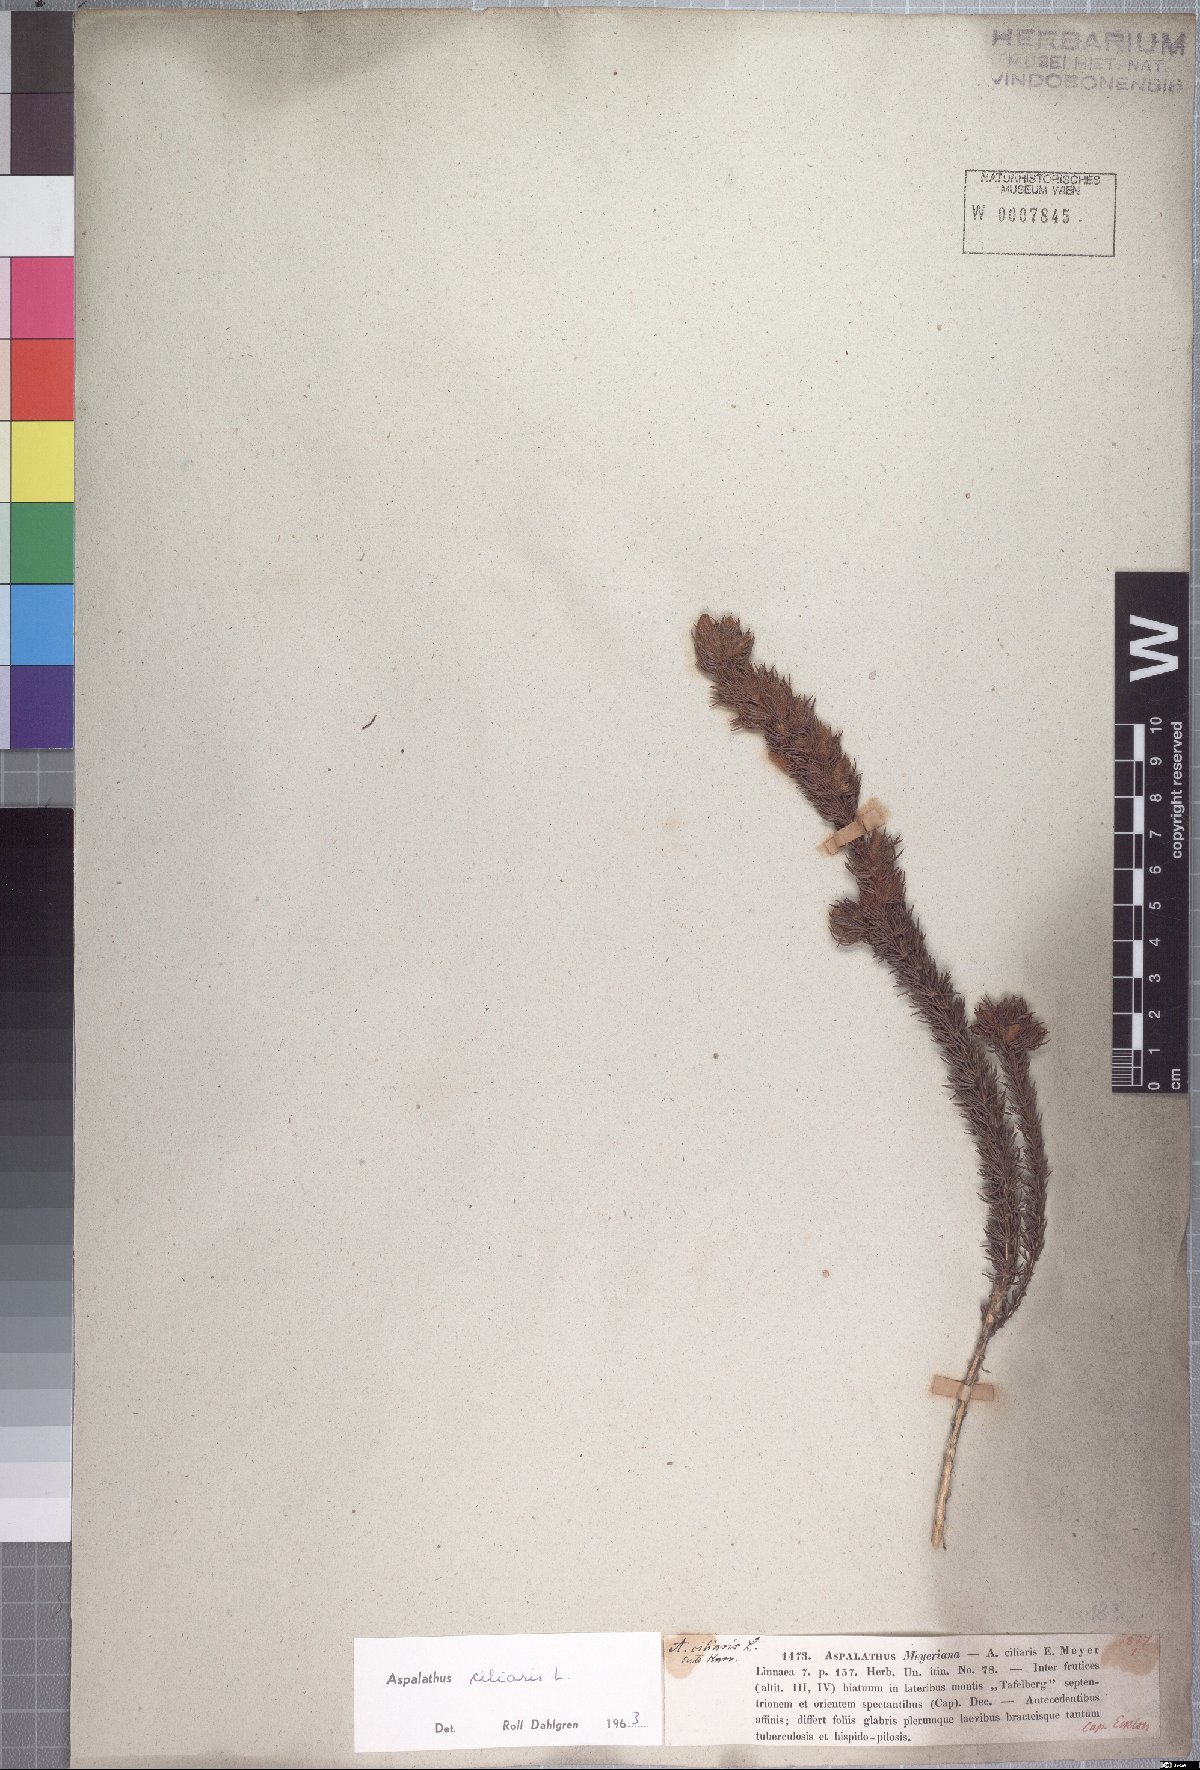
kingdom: Plantae
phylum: Tracheophyta
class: Magnoliopsida
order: Fabales
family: Fabaceae
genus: Aspalathus
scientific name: Aspalathus ciliaris
